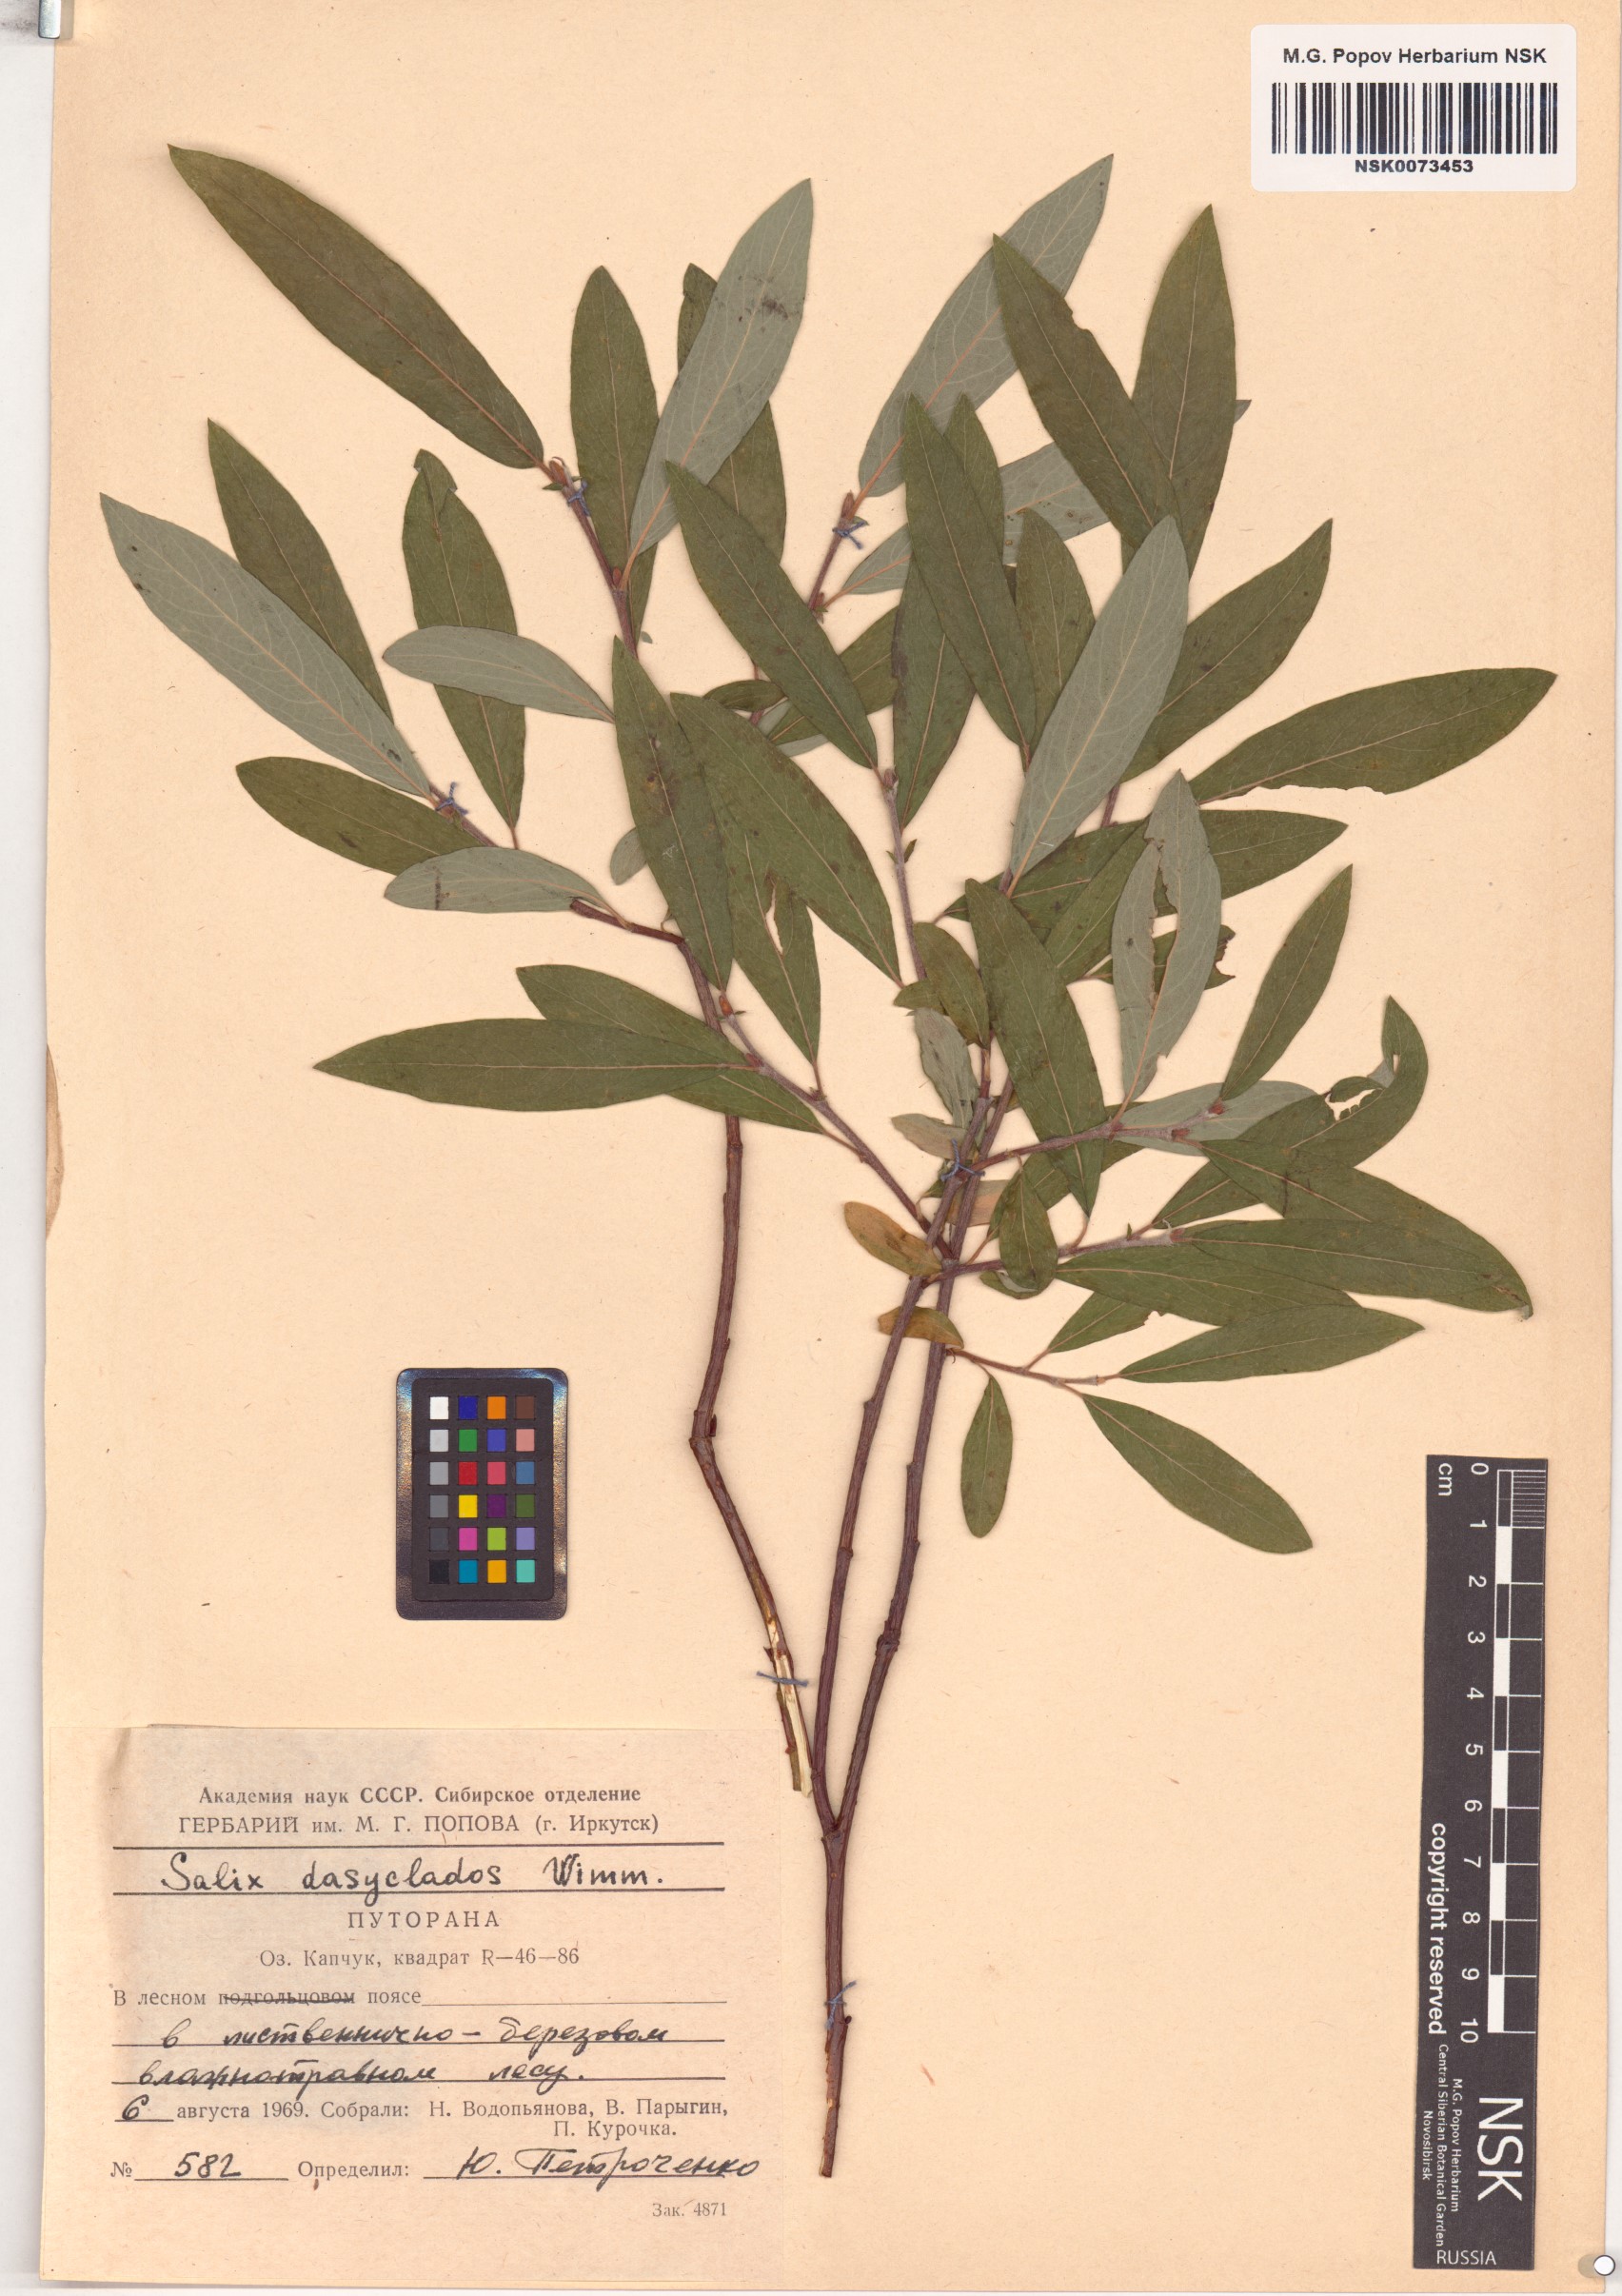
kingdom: Plantae
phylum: Tracheophyta
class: Magnoliopsida
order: Malpighiales
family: Salicaceae
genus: Salix
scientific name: Salix gmelinii
